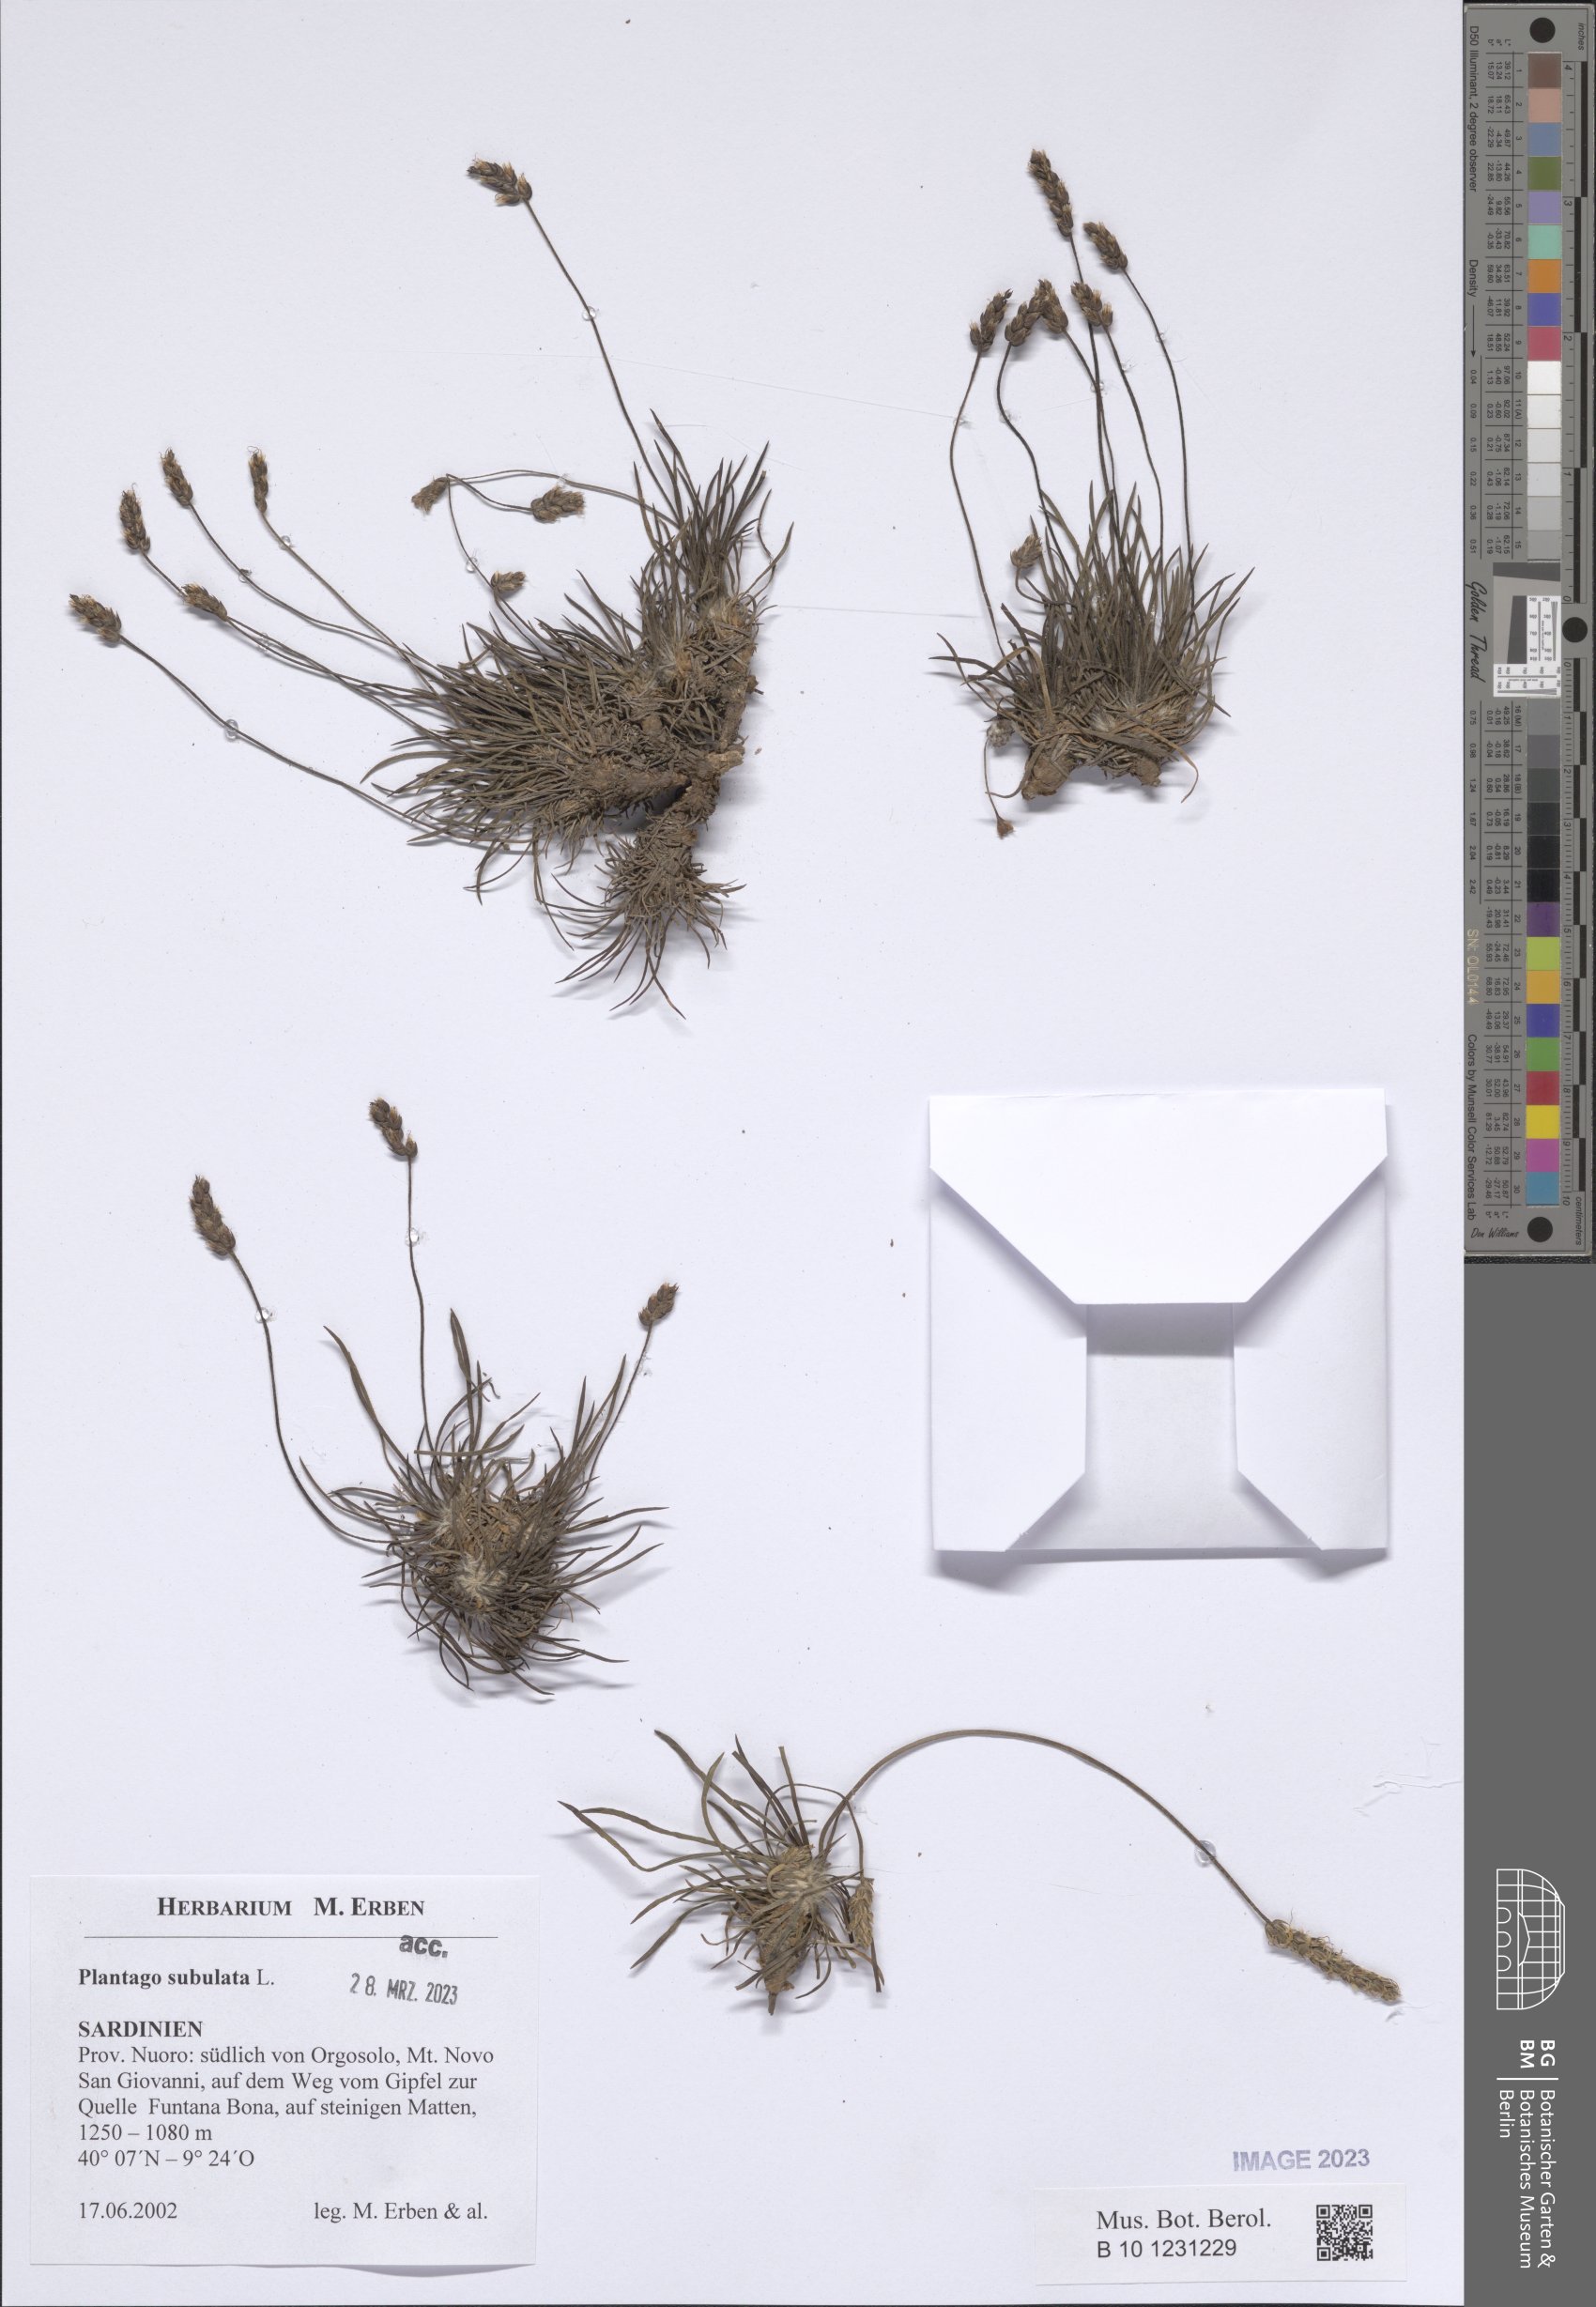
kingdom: Plantae
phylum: Tracheophyta
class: Magnoliopsida
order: Lamiales
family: Plantaginaceae
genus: Plantago
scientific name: Plantago subulata
